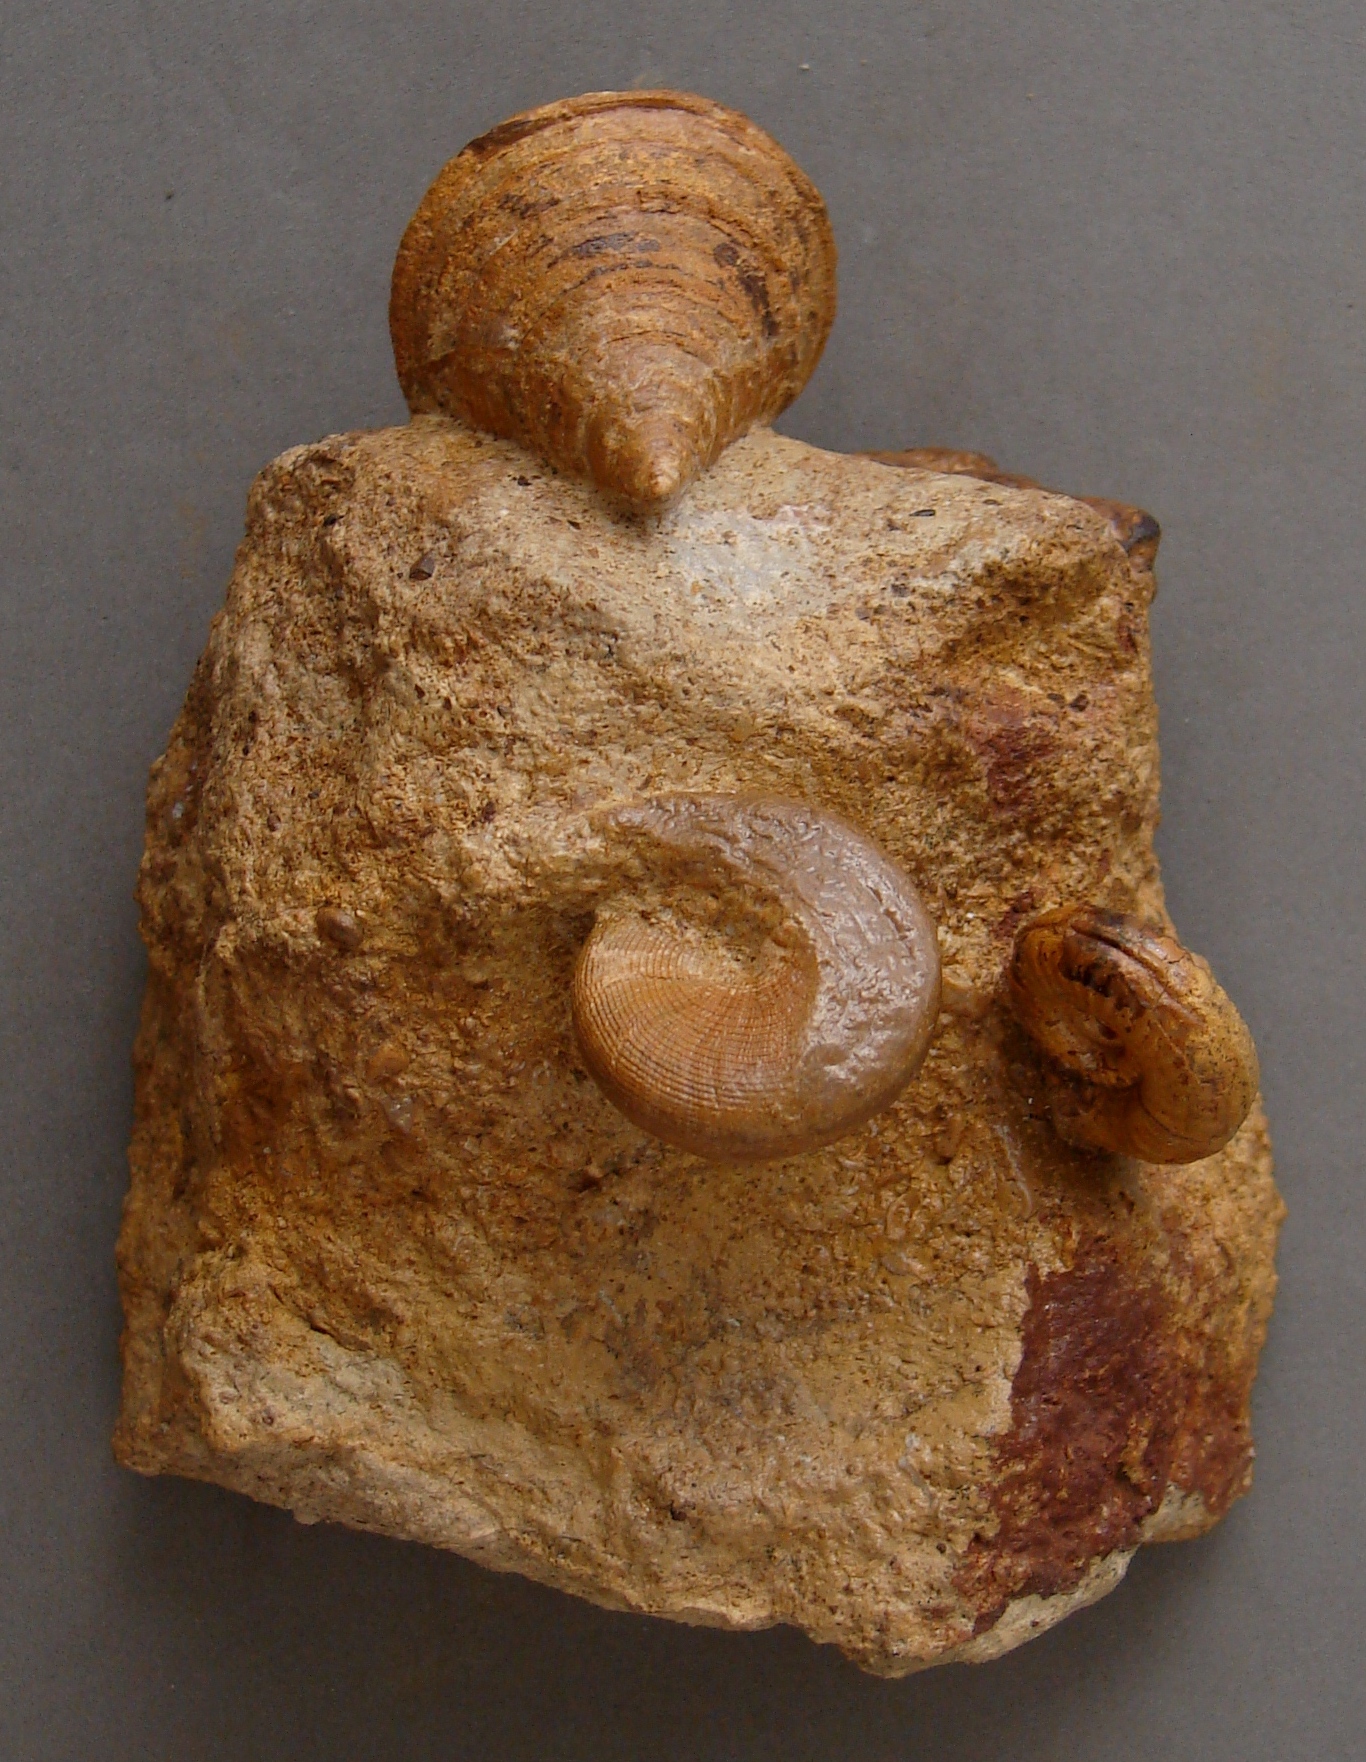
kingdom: Animalia
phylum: Mollusca
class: Gastropoda
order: Pleurotomariida
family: Pleurotomariidae
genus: Bathrotomaria
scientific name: Bathrotomaria Pleurotomaria subreticulata
